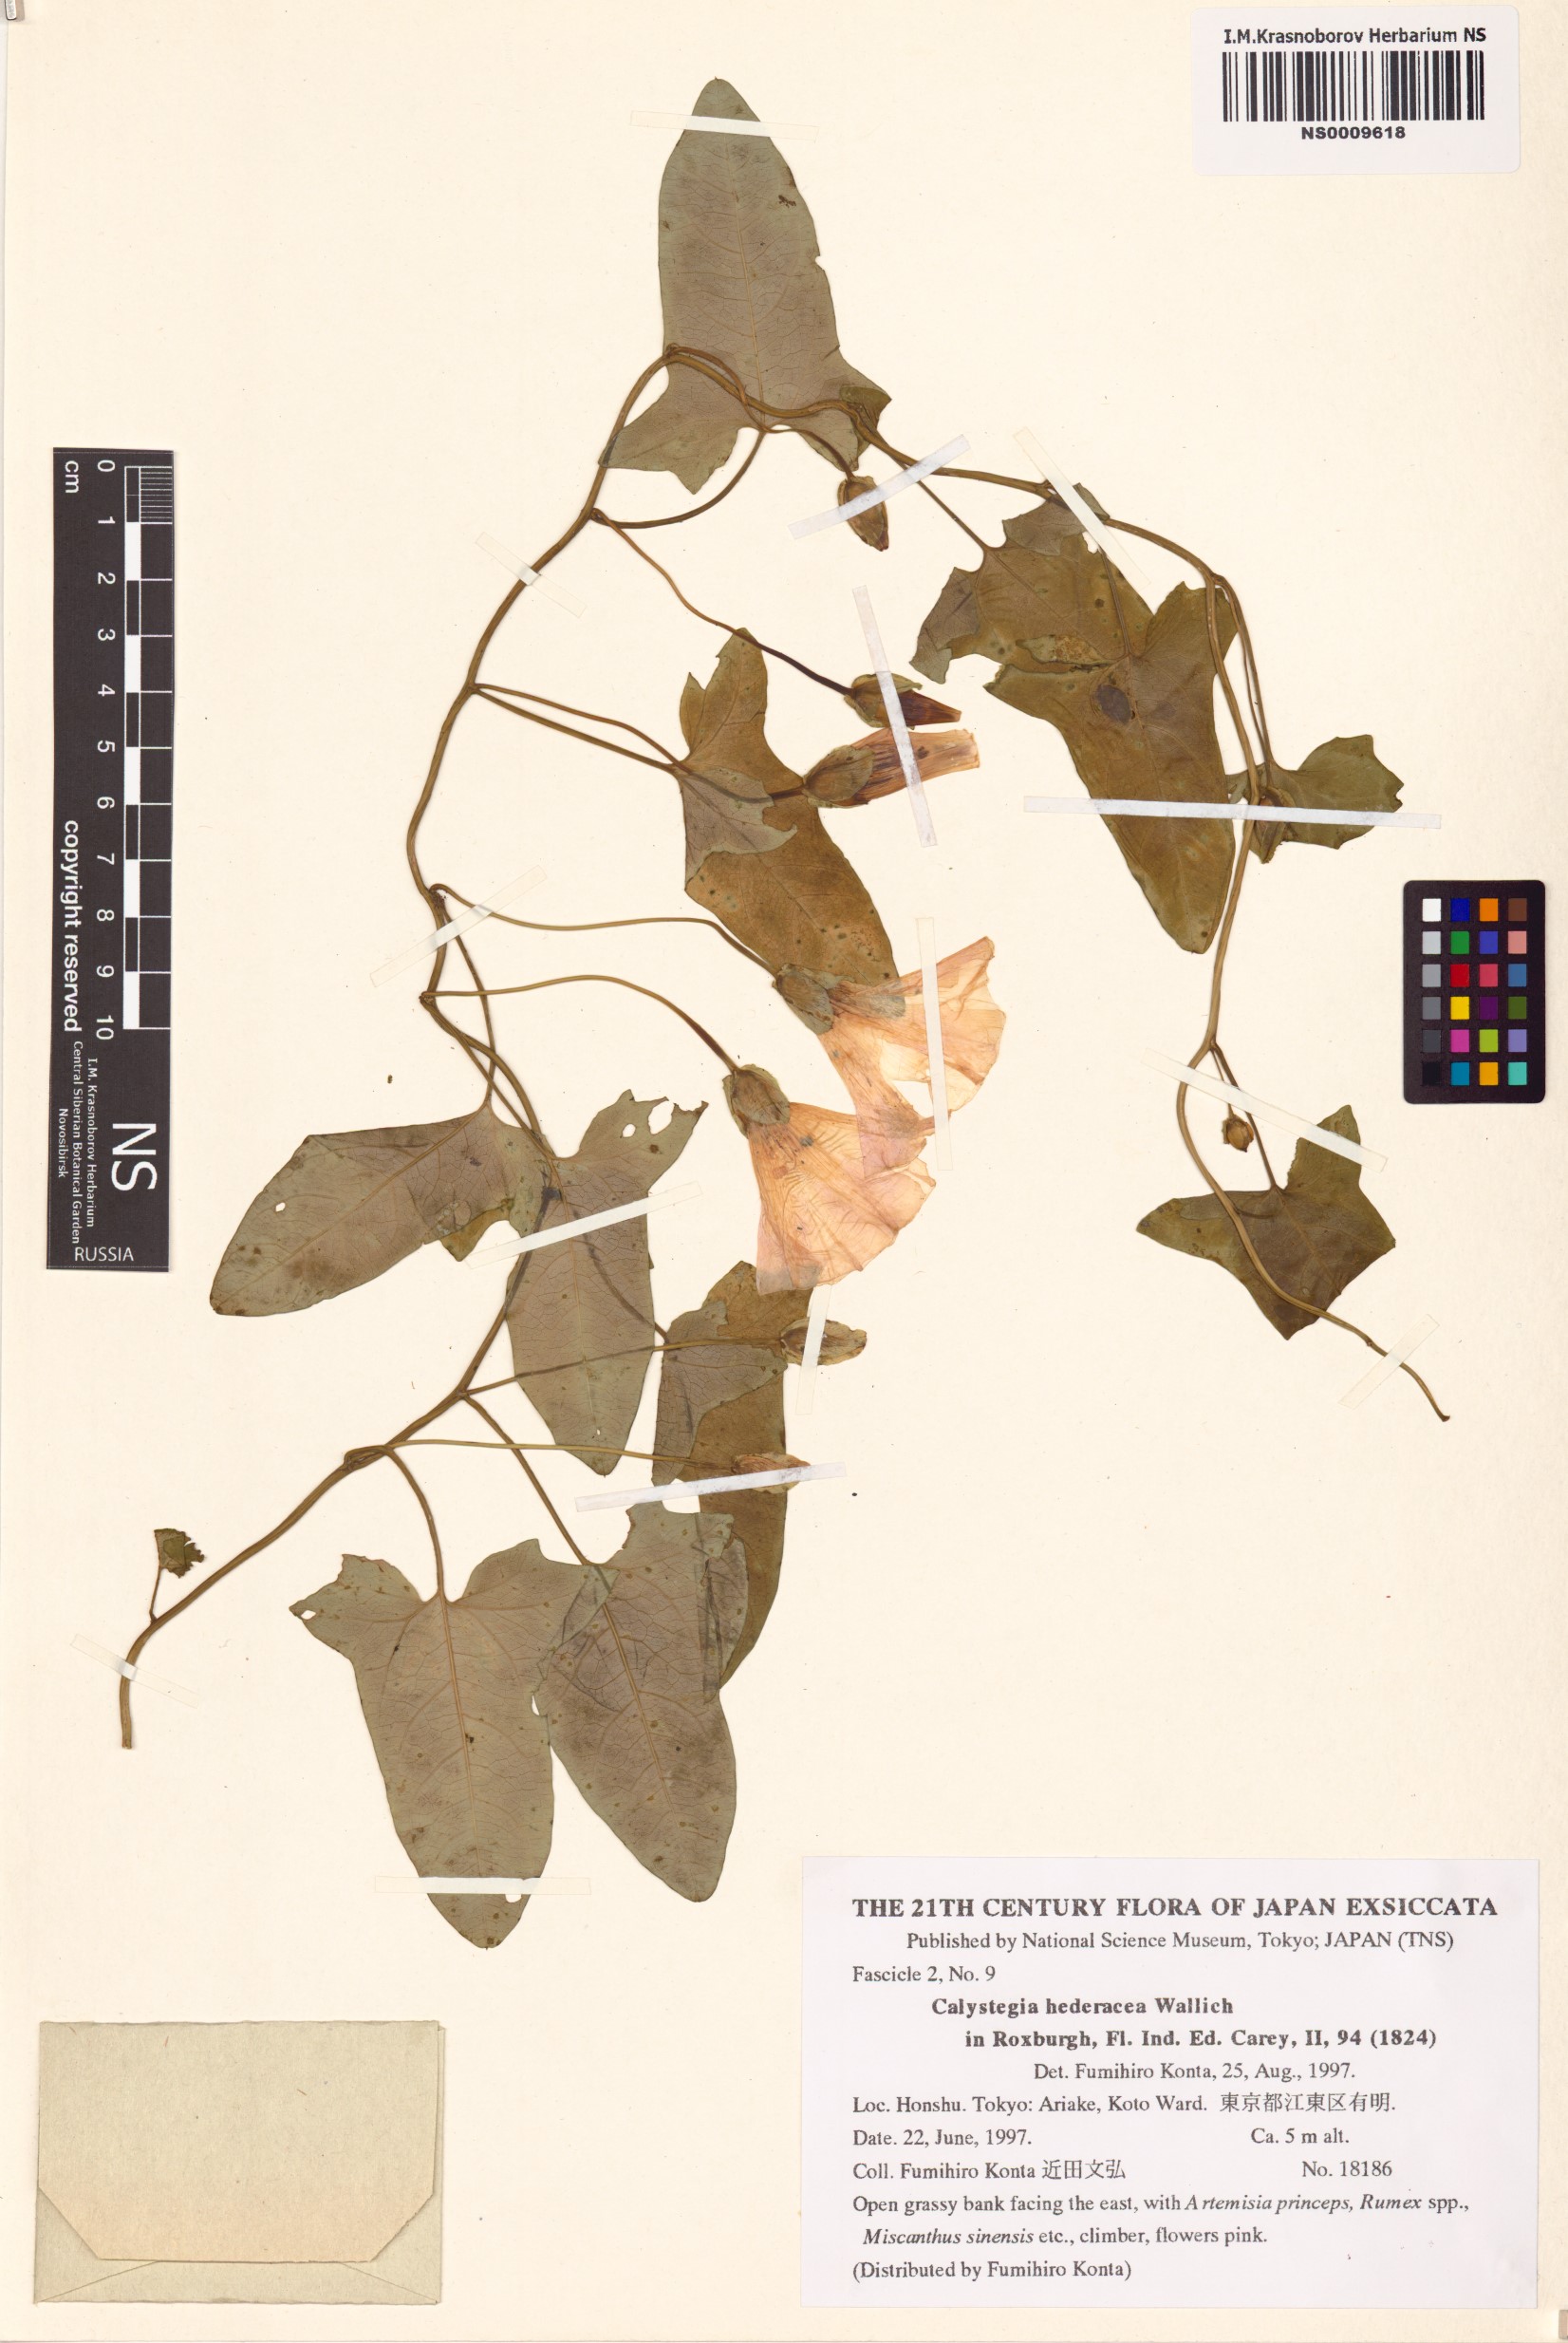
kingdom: Plantae
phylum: Tracheophyta
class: Magnoliopsida
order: Solanales
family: Convolvulaceae
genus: Calystegia
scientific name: Calystegia hederacea
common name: Japanese false bindweed
